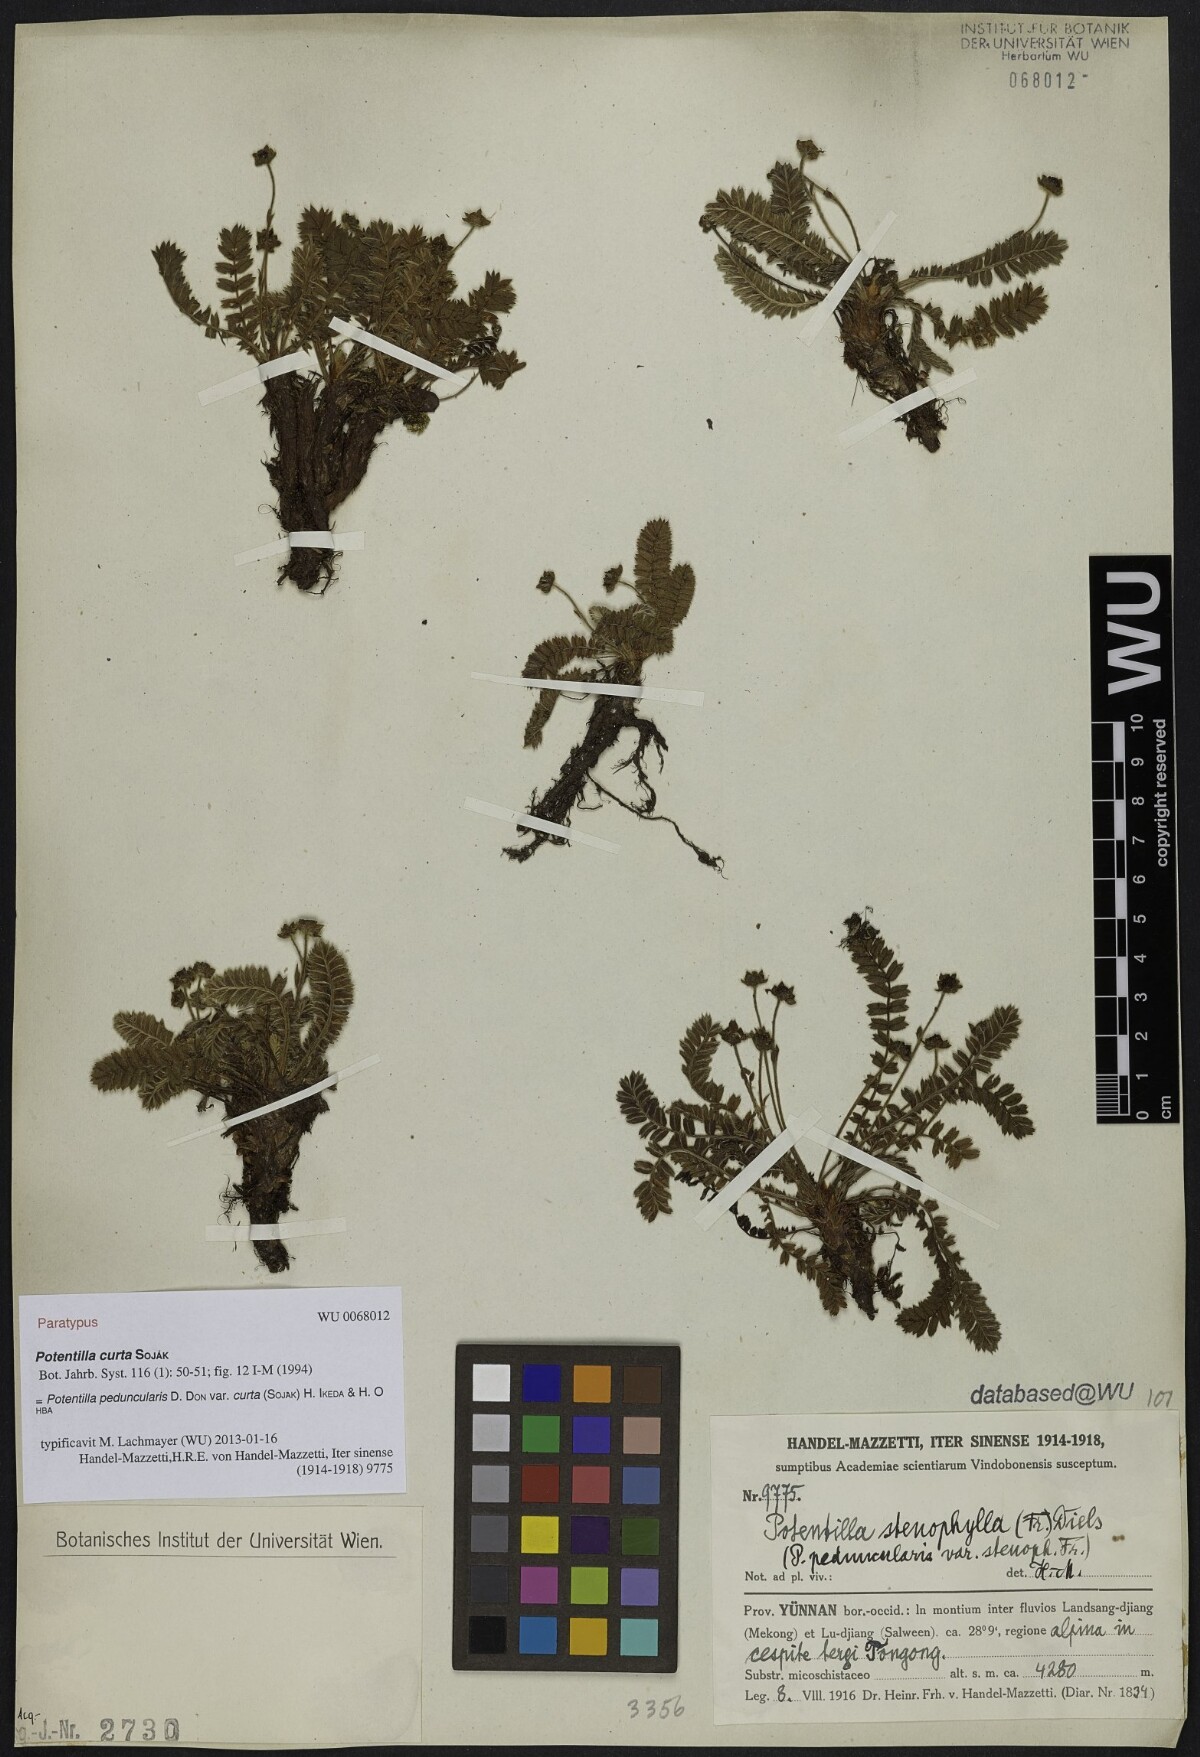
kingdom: Plantae
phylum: Tracheophyta
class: Magnoliopsida
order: Rosales
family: Rosaceae
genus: Argentina
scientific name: Argentina curta
